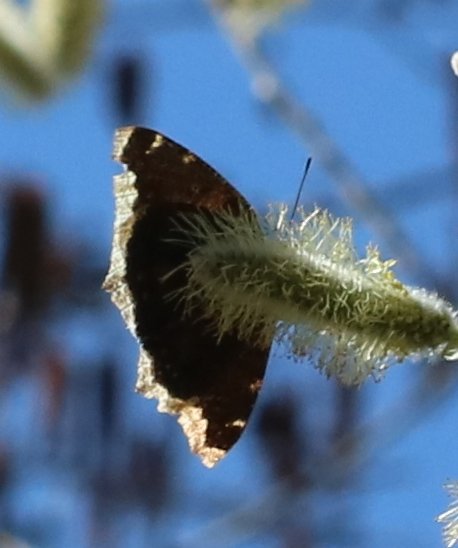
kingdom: Animalia
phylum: Arthropoda
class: Insecta
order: Lepidoptera
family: Nymphalidae
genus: Nymphalis
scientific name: Nymphalis antiopa
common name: Mourning Cloak
